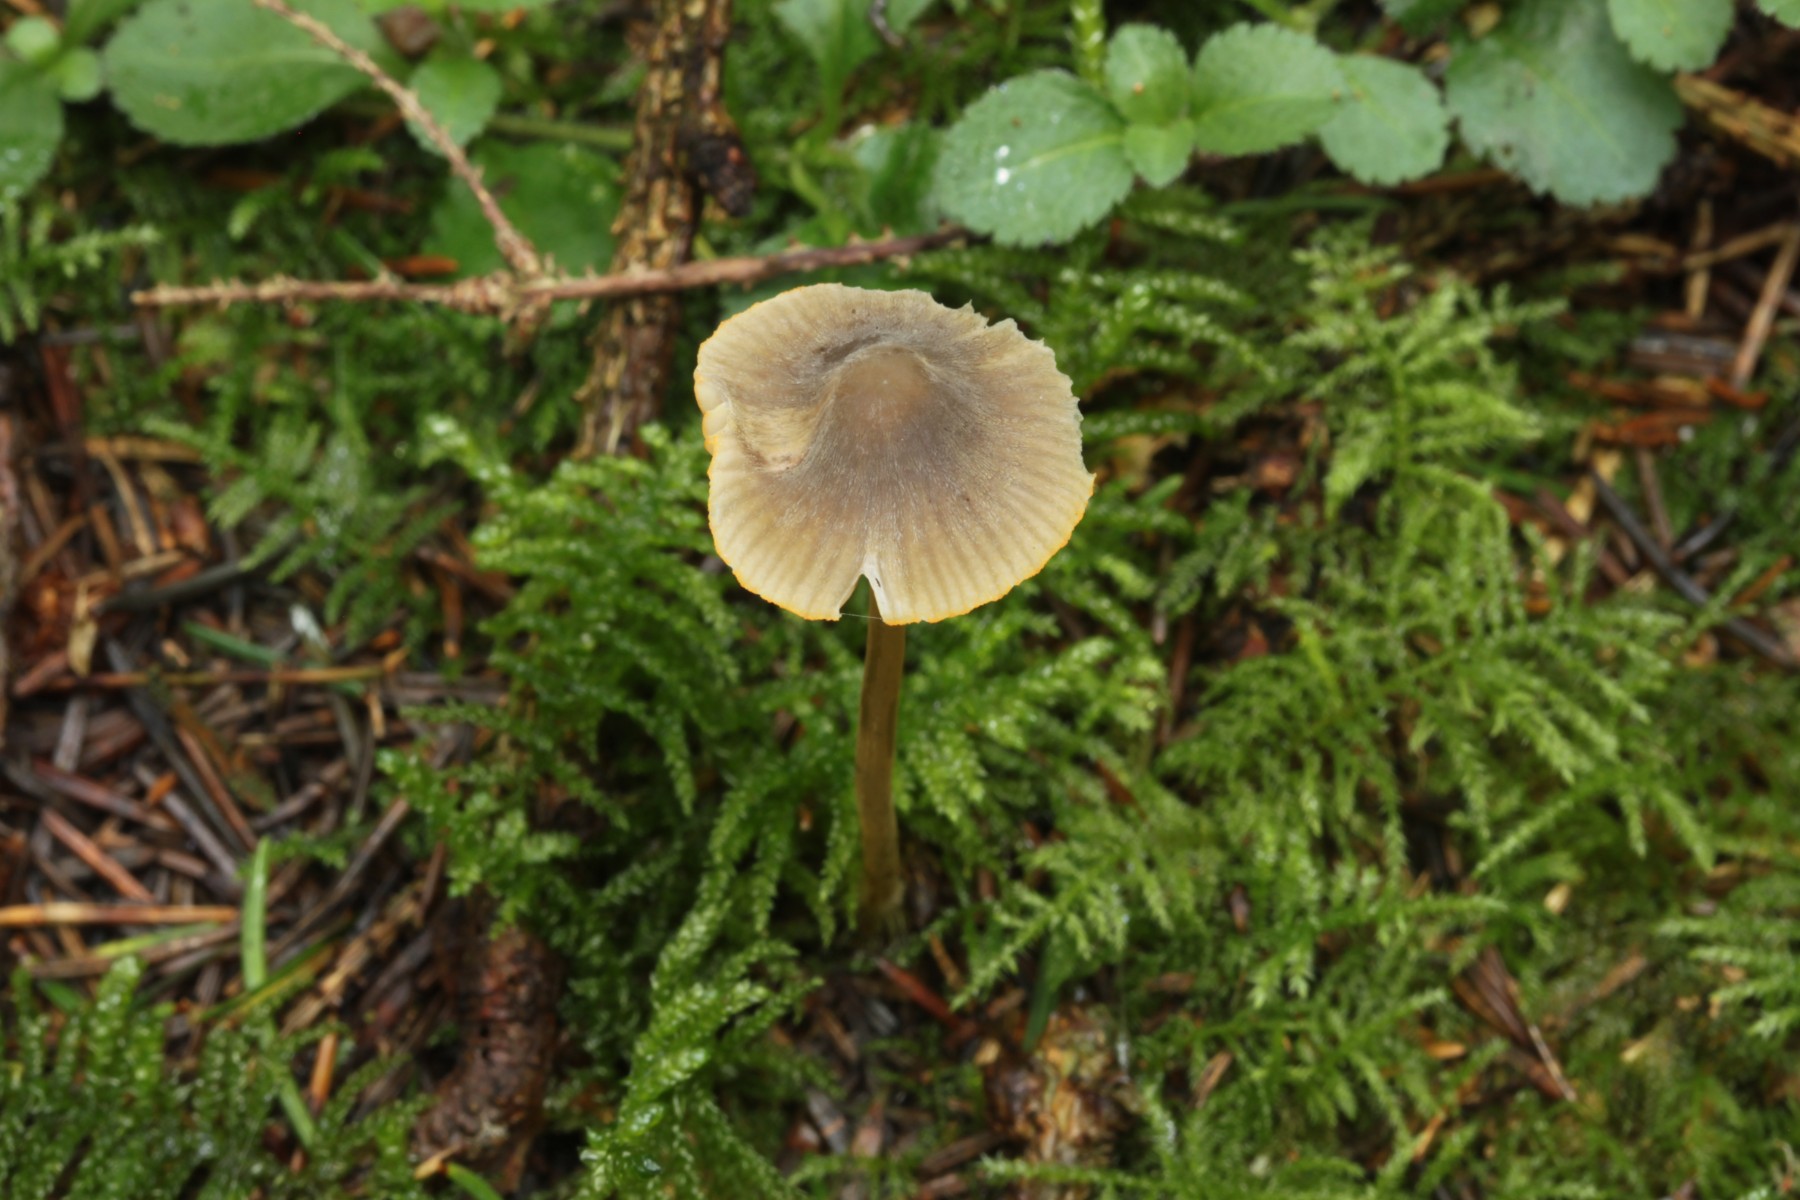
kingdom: Fungi
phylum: Basidiomycota
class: Agaricomycetes
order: Agaricales
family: Mycenaceae
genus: Mycena
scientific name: Mycena aurantiomarginata
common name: orangeægget huesvamp
